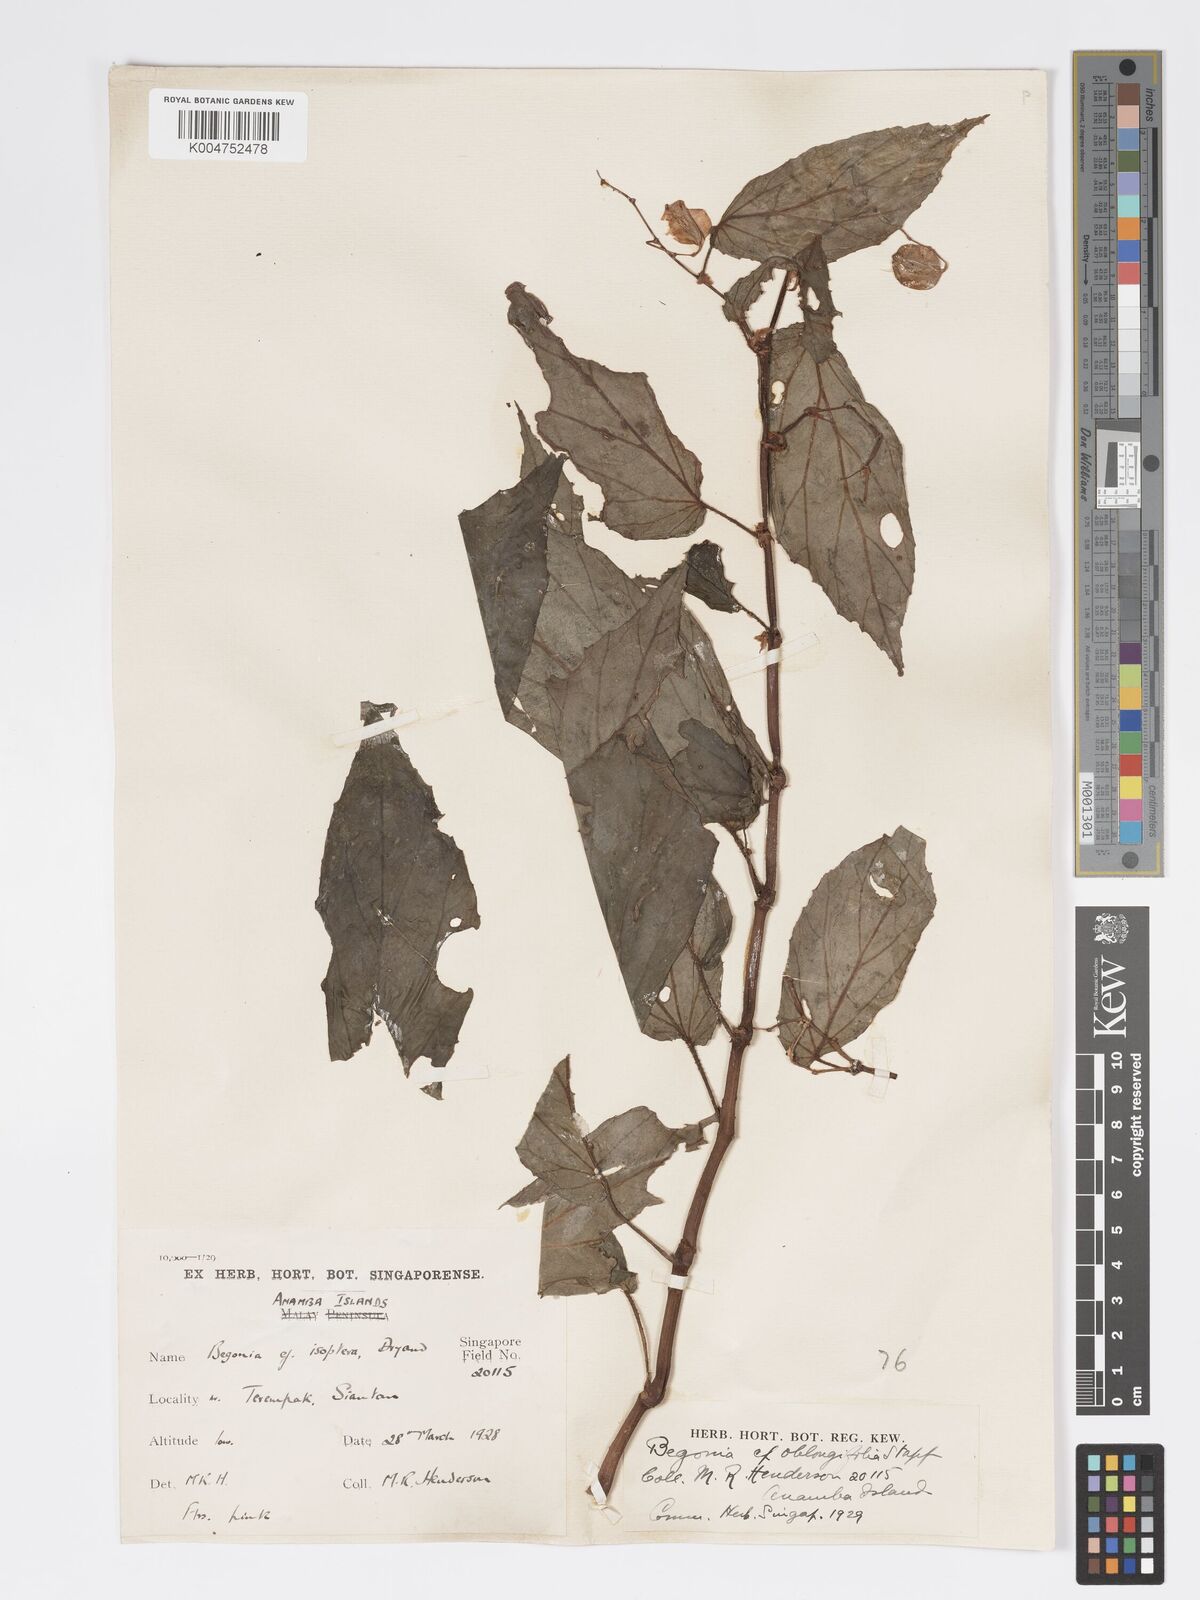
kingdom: Plantae
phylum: Tracheophyta
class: Magnoliopsida
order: Cucurbitales
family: Begoniaceae
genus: Begonia
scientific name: Begonia oblongifolia
